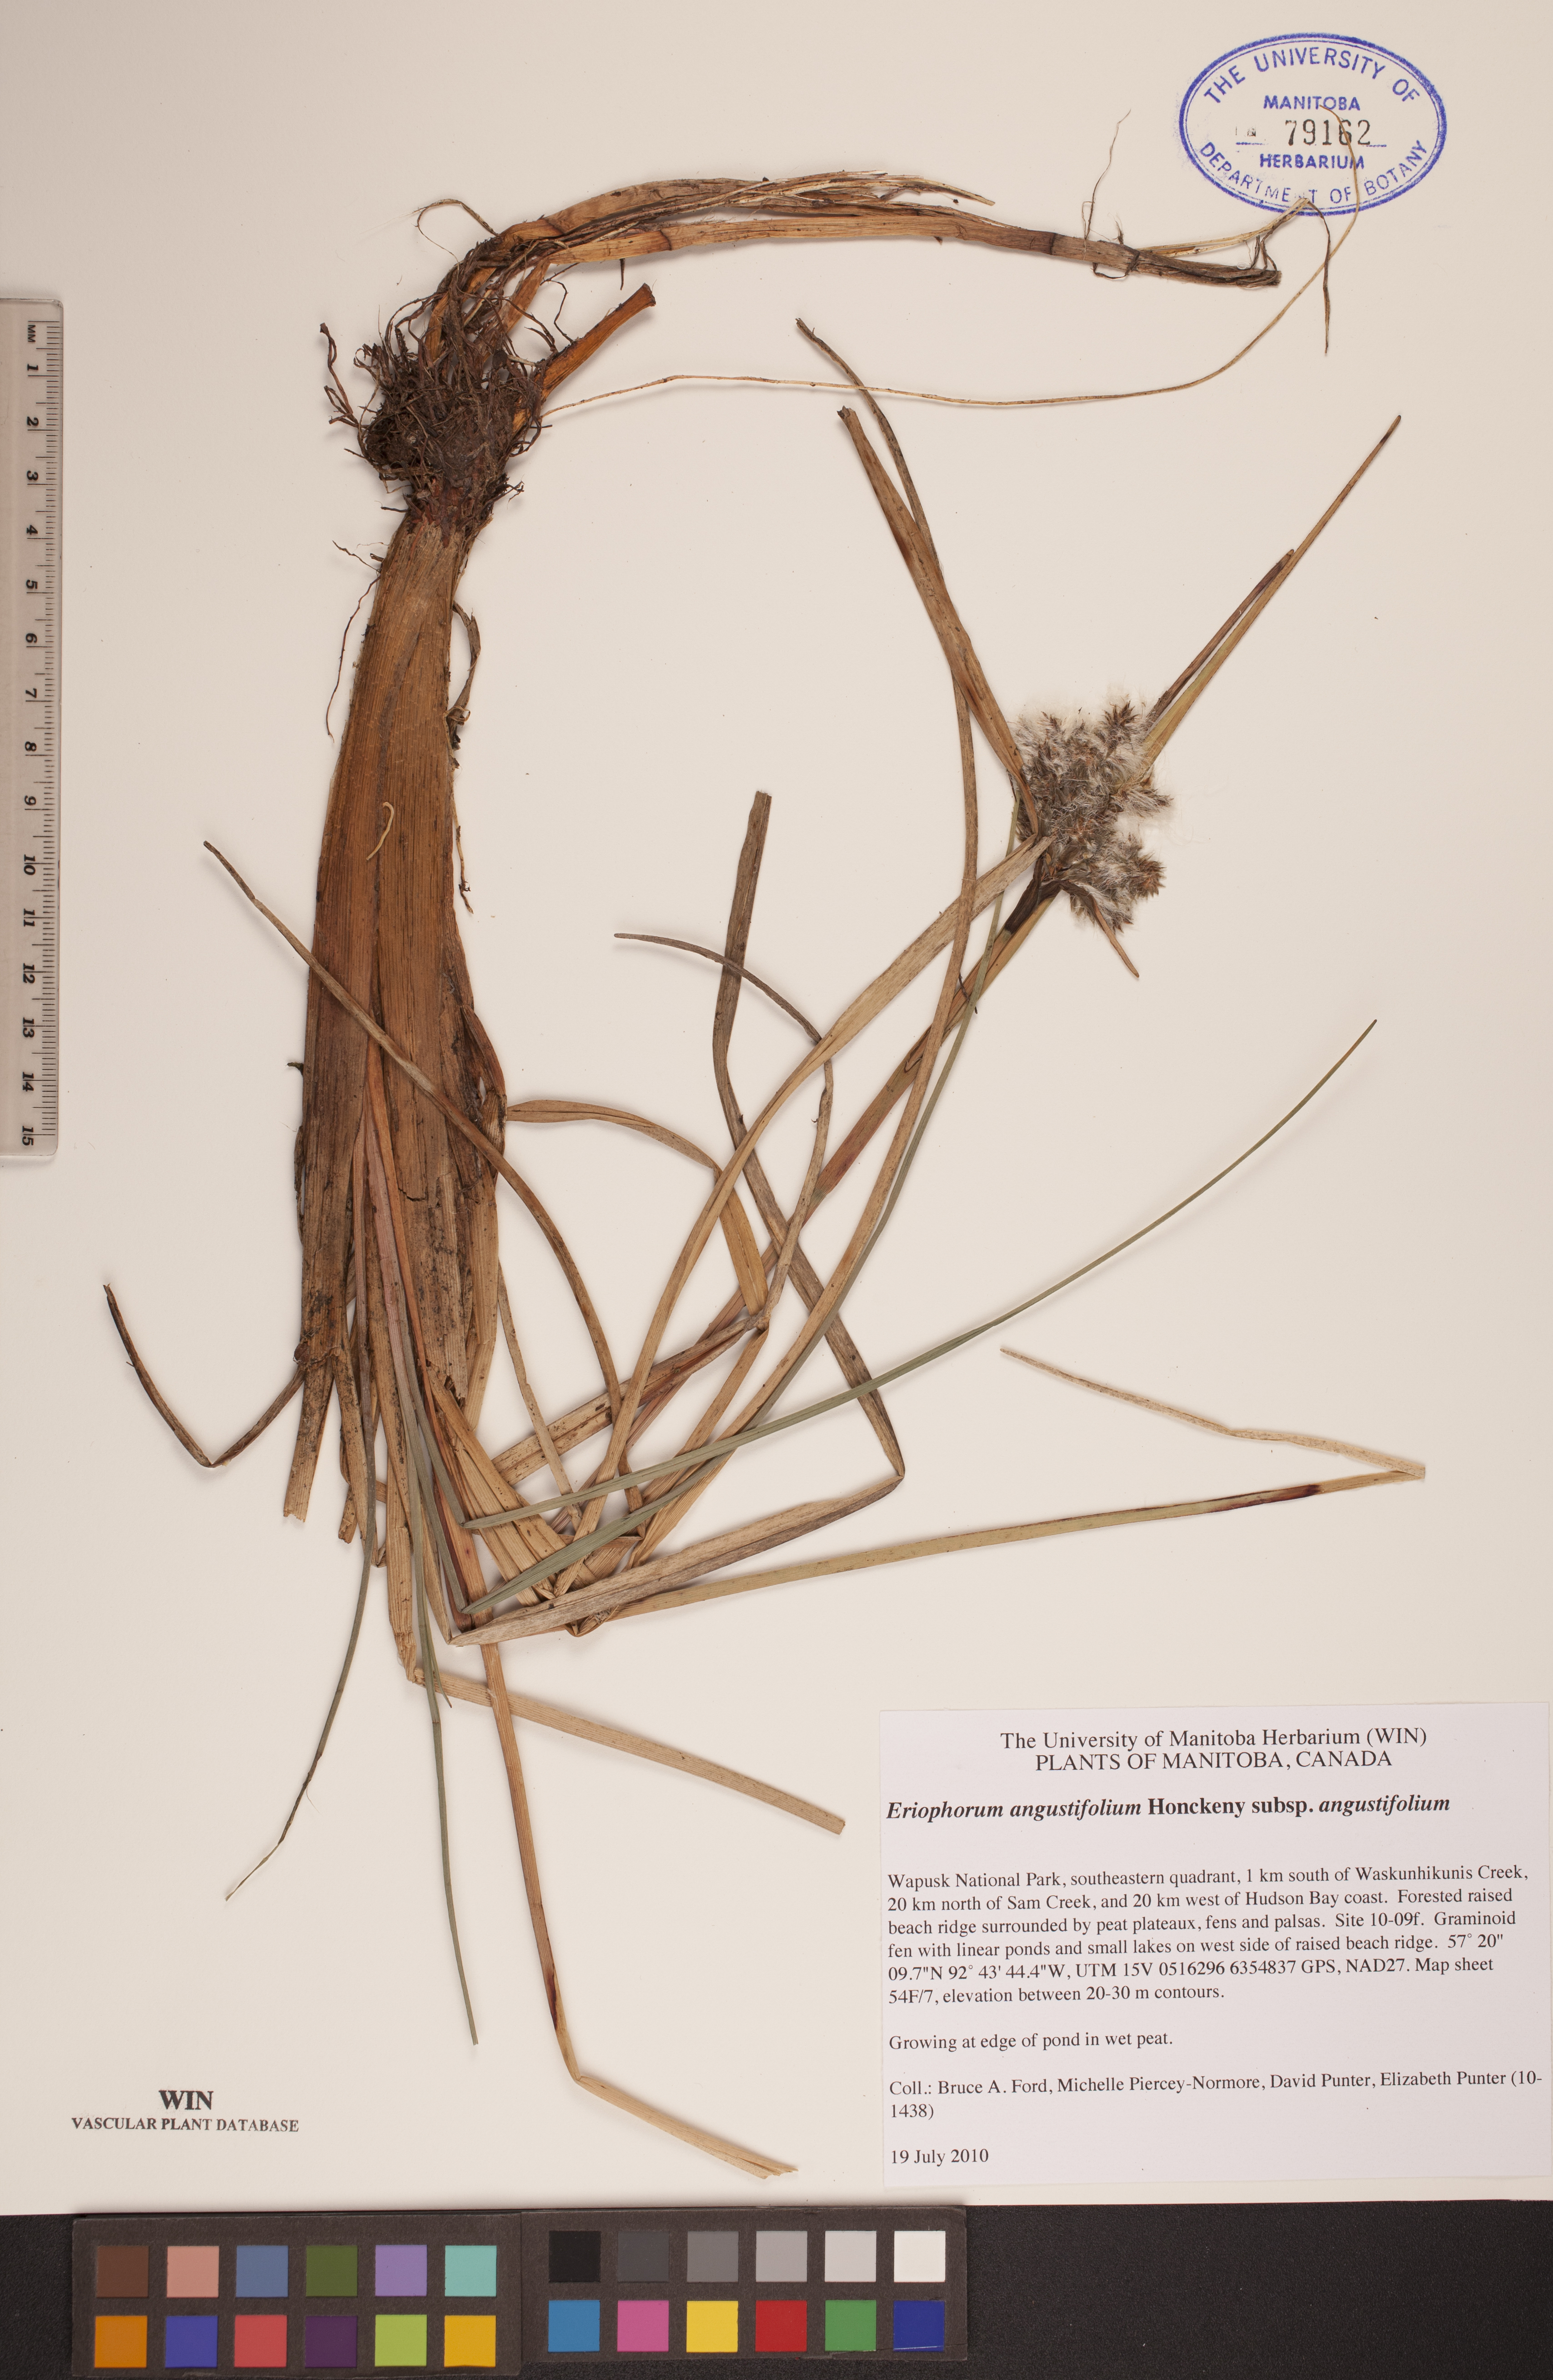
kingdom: Plantae
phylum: Tracheophyta
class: Liliopsida
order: Poales
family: Cyperaceae
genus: Eriophorum
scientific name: Eriophorum angustifolium
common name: Common cottongrass
